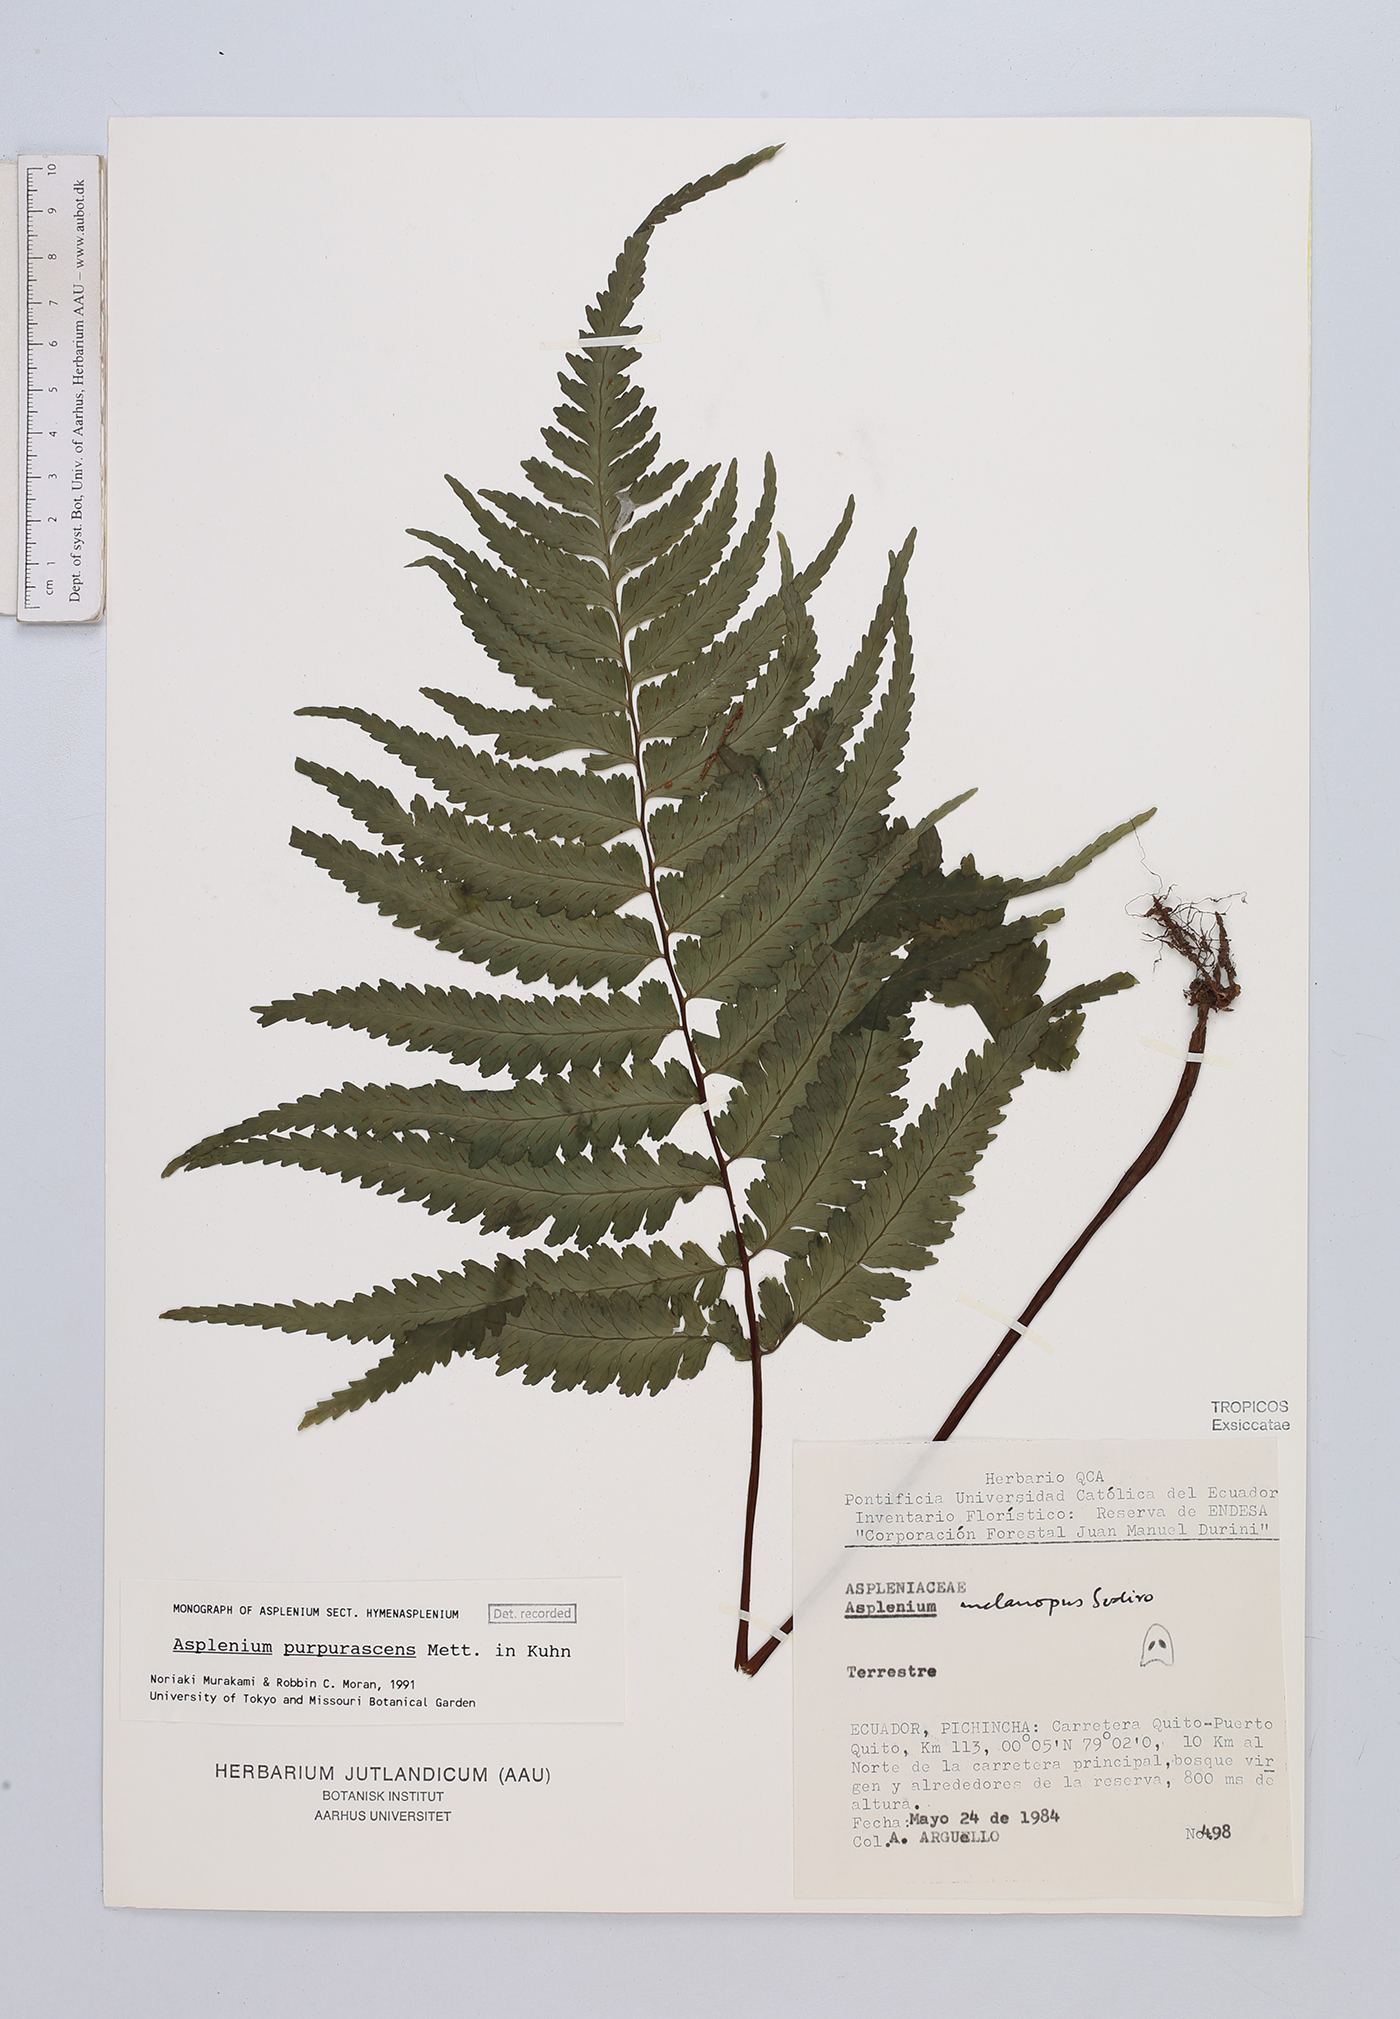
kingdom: Plantae
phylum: Tracheophyta
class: Polypodiopsida
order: Polypodiales
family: Aspleniaceae
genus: Hymenasplenium
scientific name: Hymenasplenium purpurascens
